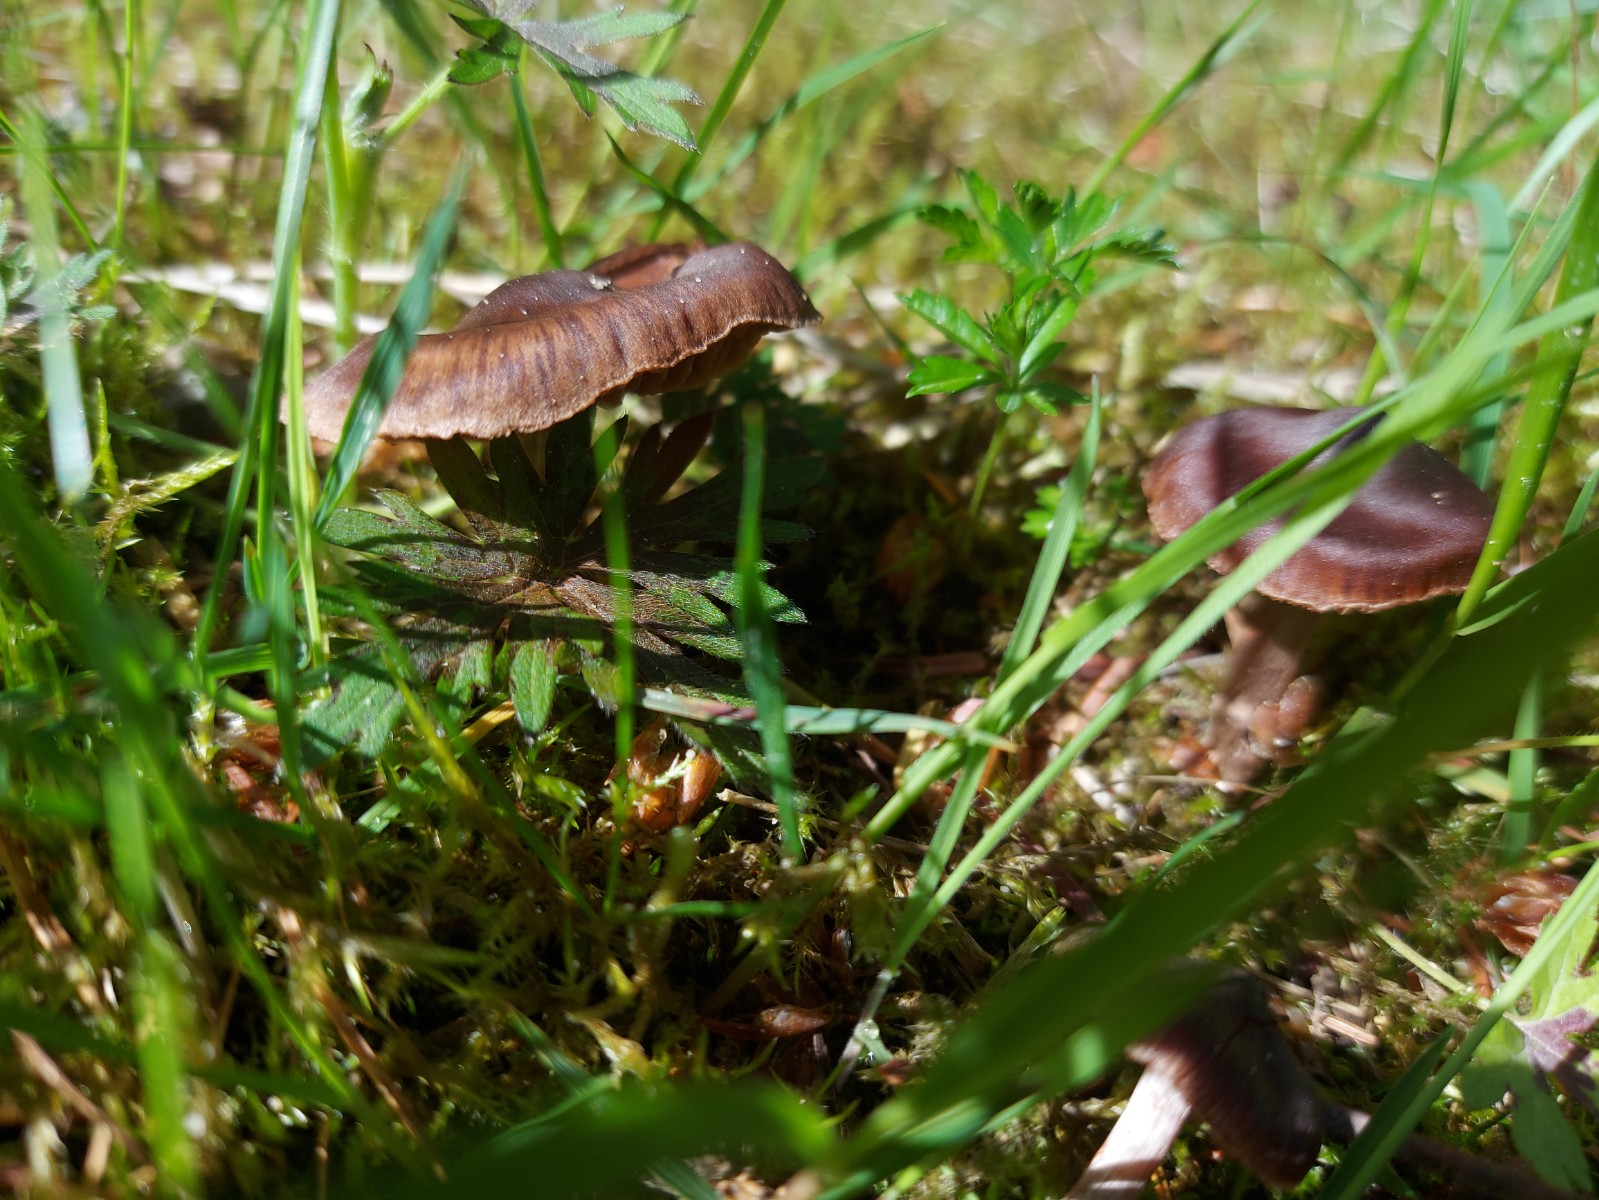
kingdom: Fungi
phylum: Basidiomycota
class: Agaricomycetes
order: Agaricales
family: Cortinariaceae
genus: Cortinarius
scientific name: Cortinarius
